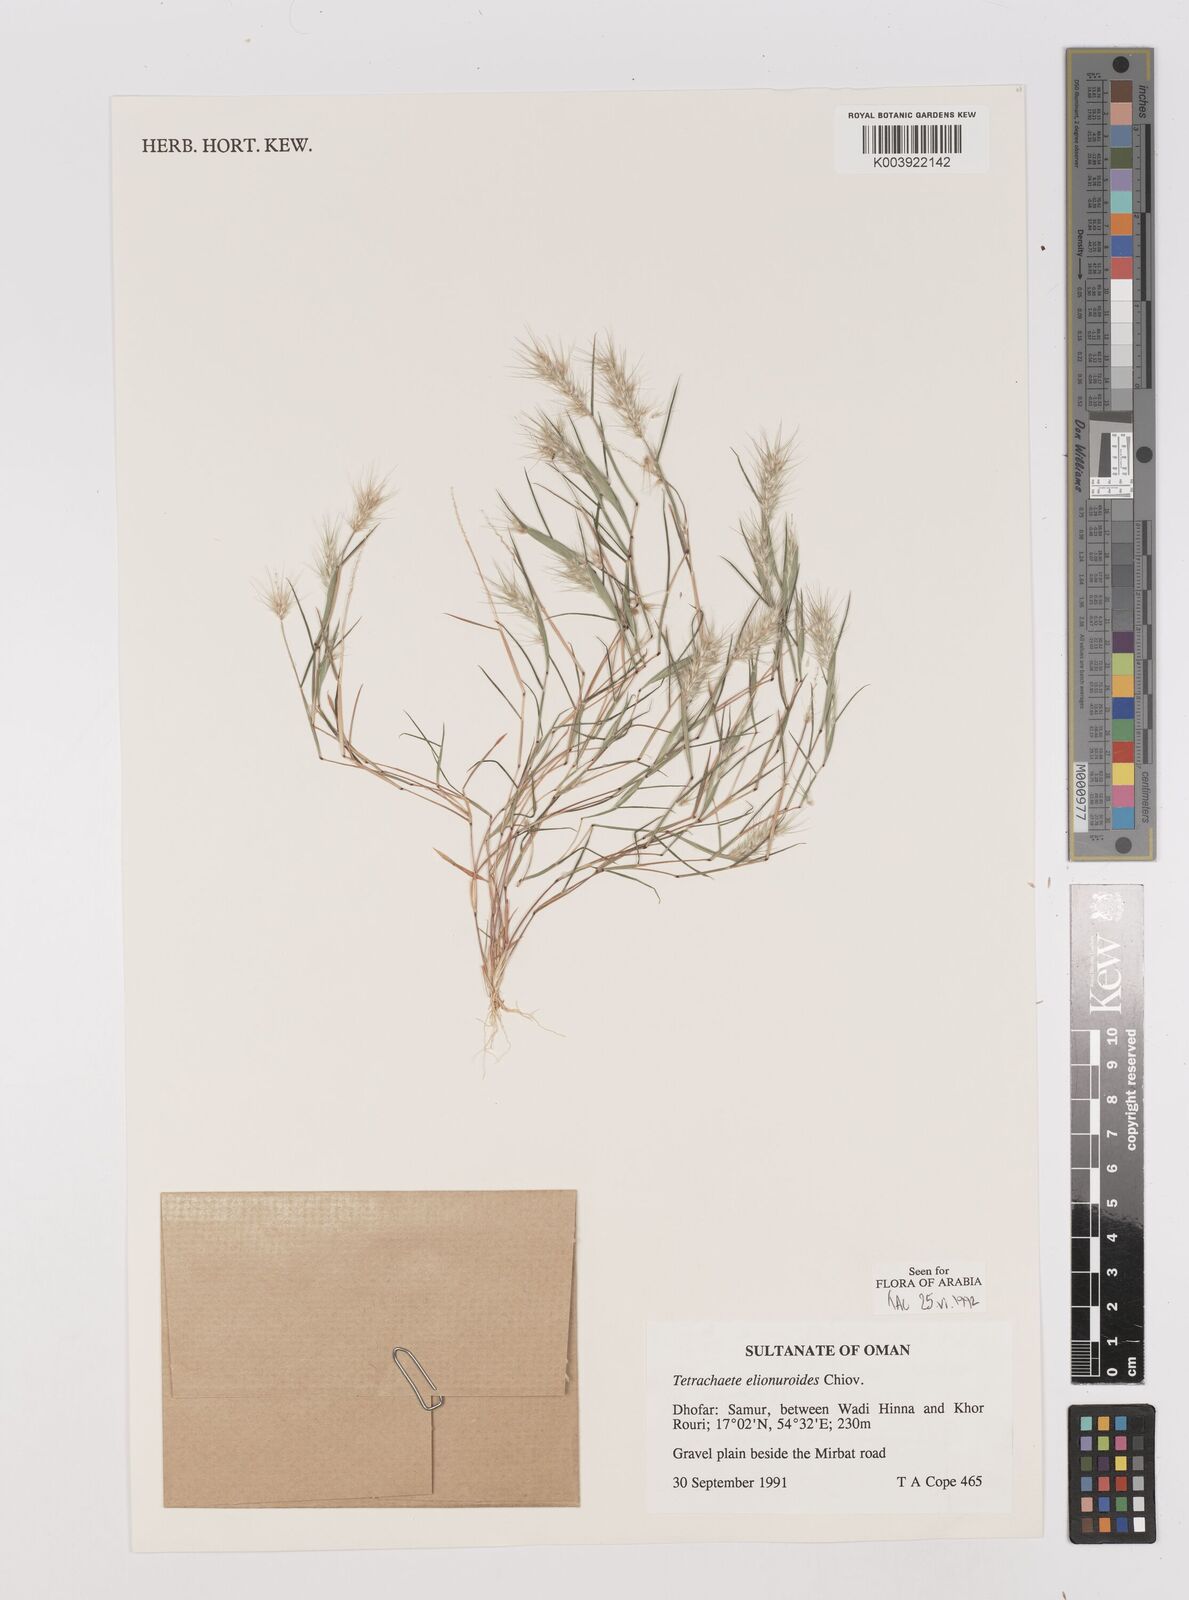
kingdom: Plantae
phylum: Tracheophyta
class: Liliopsida
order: Poales
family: Poaceae
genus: Tetrachaete
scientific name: Tetrachaete elionuroides
